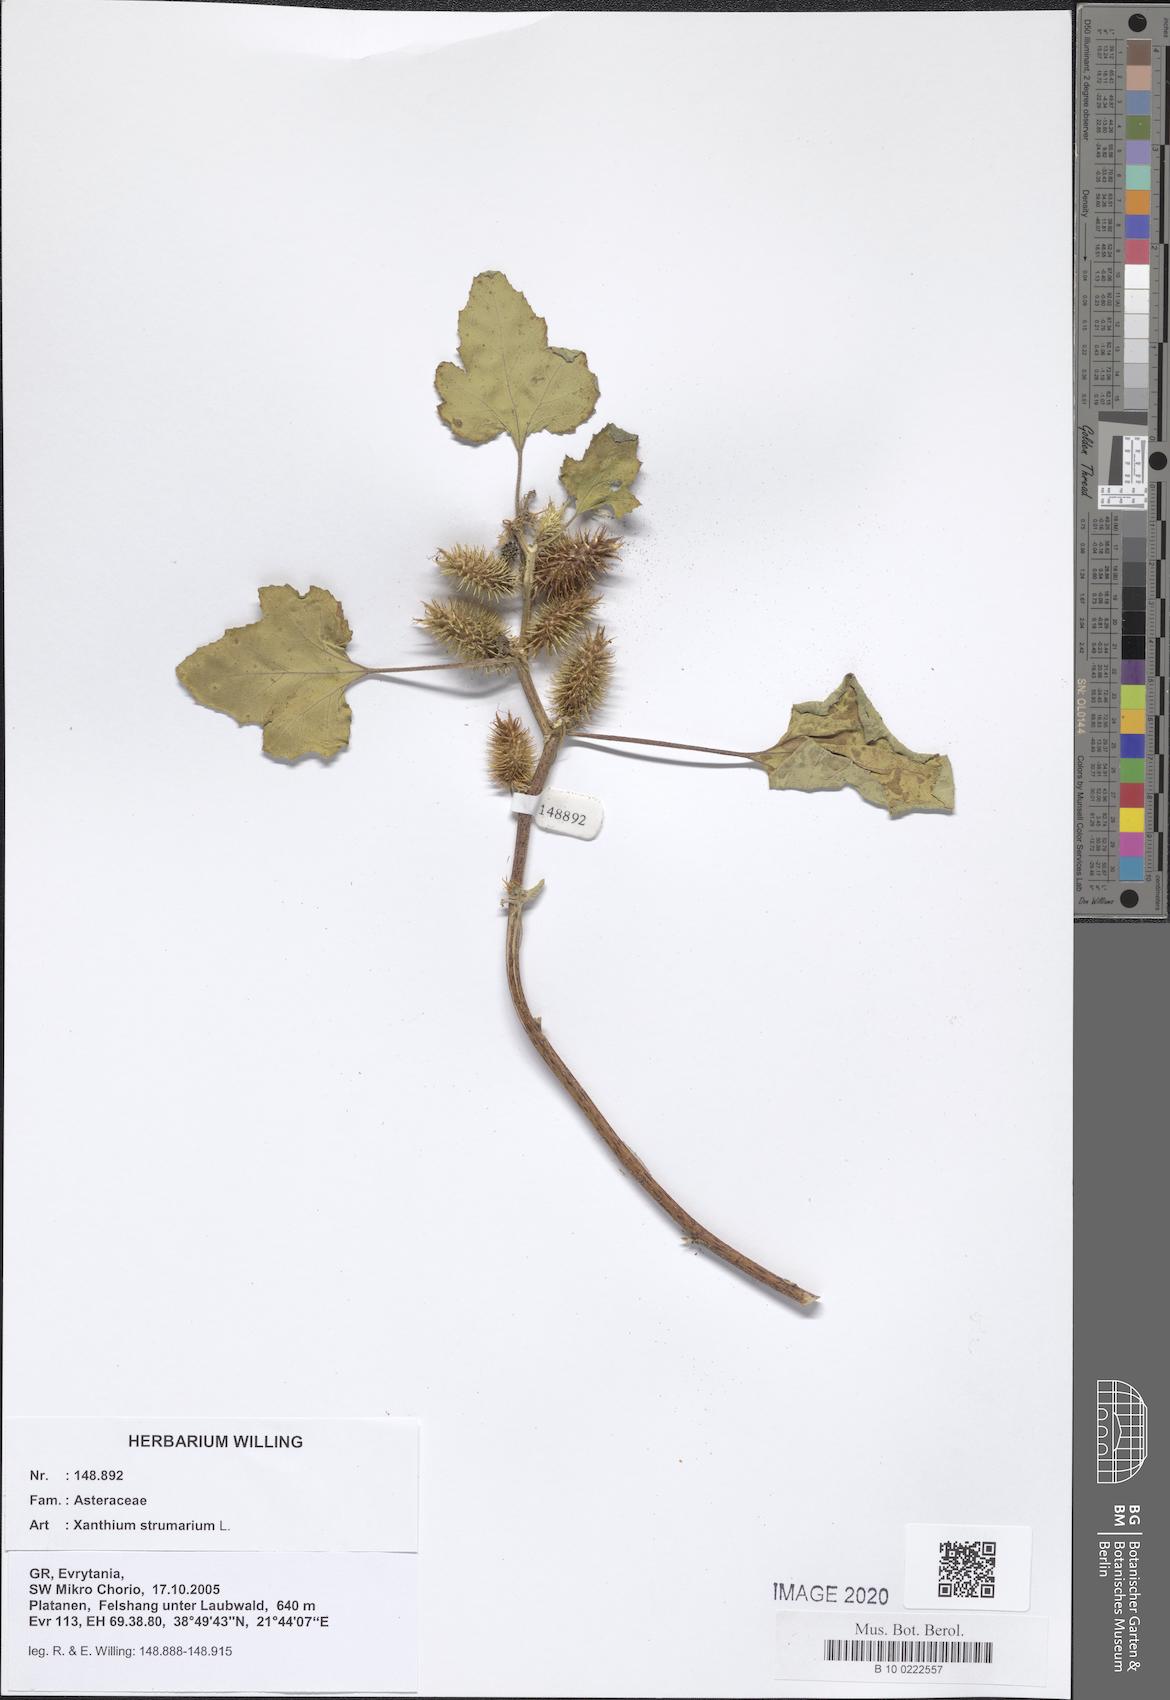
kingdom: Plantae
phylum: Tracheophyta
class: Magnoliopsida
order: Asterales
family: Asteraceae
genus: Xanthium
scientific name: Xanthium strumarium
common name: Rough cocklebur
